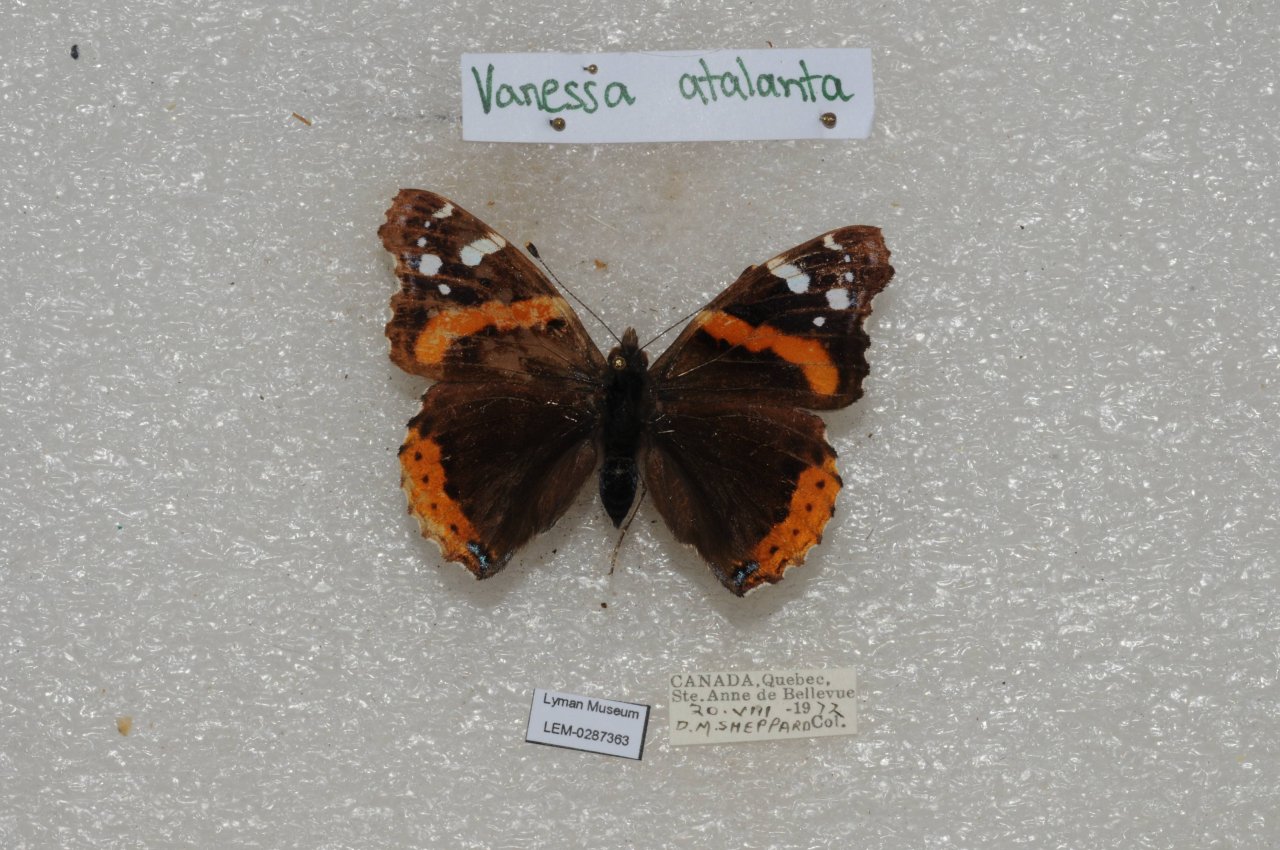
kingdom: Animalia
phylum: Arthropoda
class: Insecta
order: Lepidoptera
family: Nymphalidae
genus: Vanessa
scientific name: Vanessa atalanta
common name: Red Admiral
